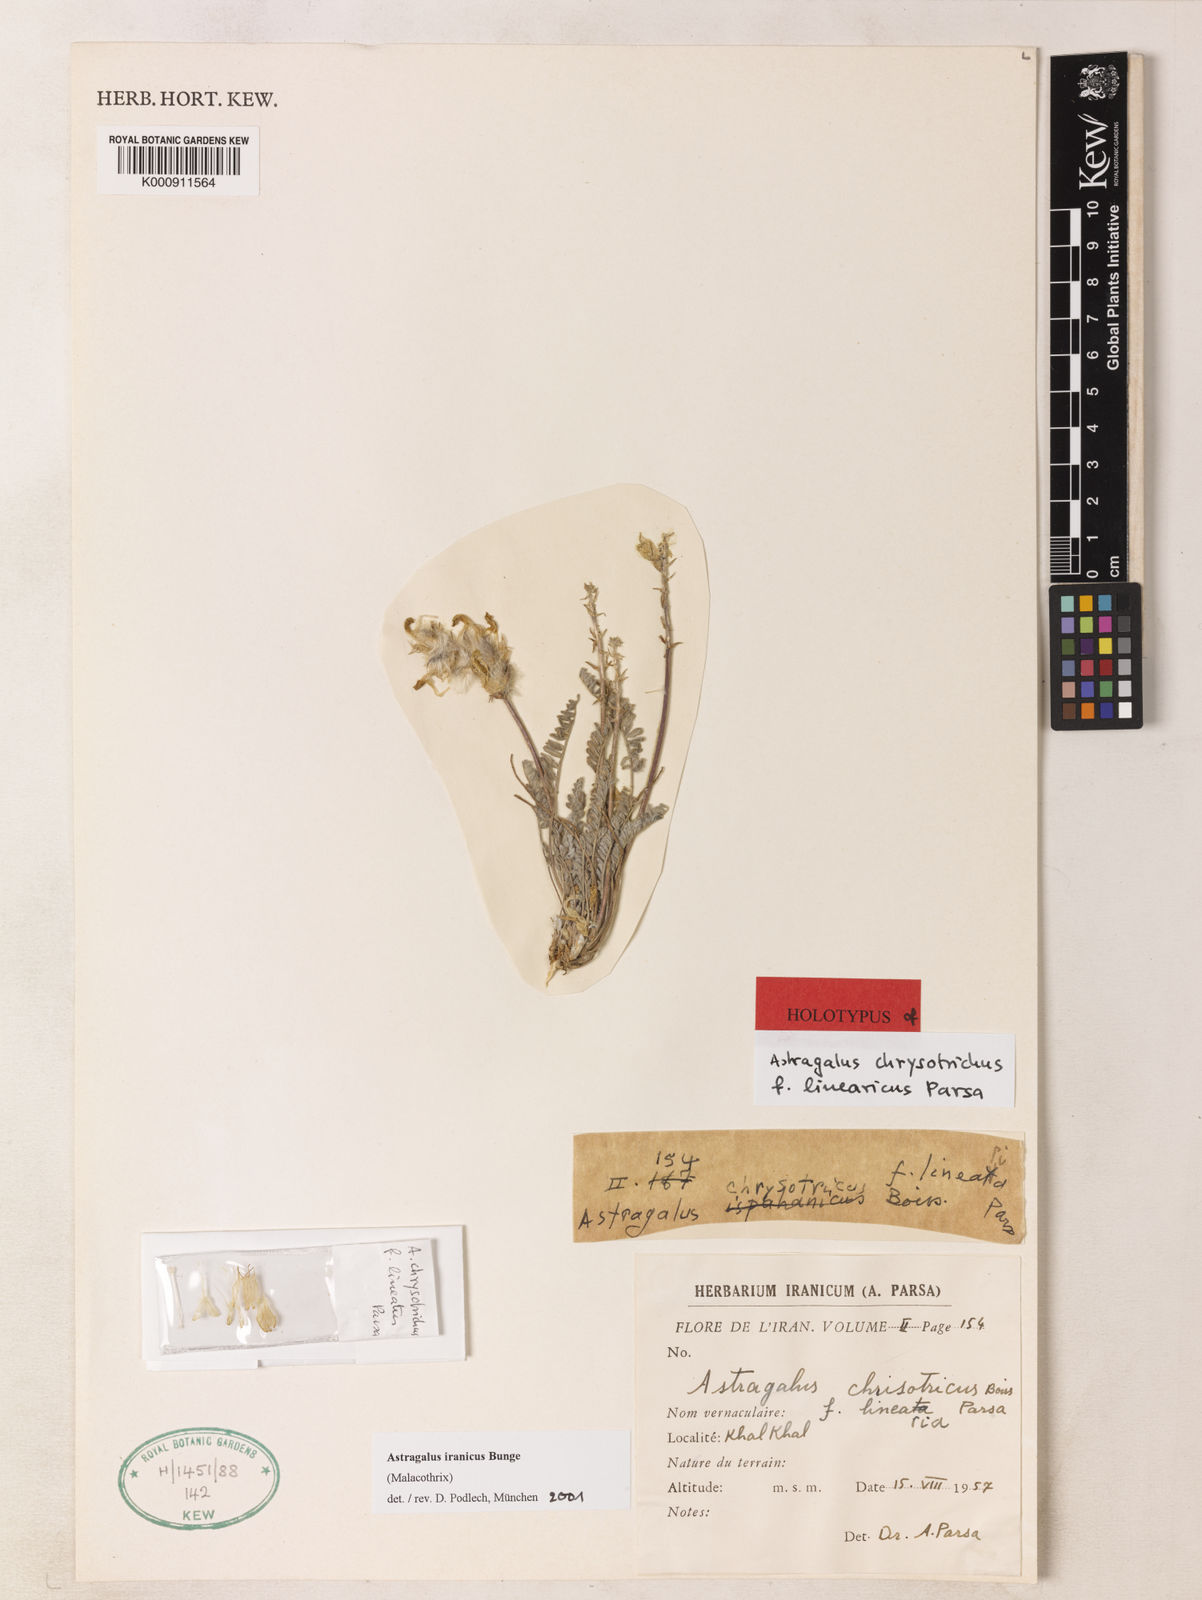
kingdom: Plantae
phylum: Tracheophyta
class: Magnoliopsida
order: Fabales
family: Fabaceae
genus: Astragalus
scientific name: Astragalus chrysotrichus
